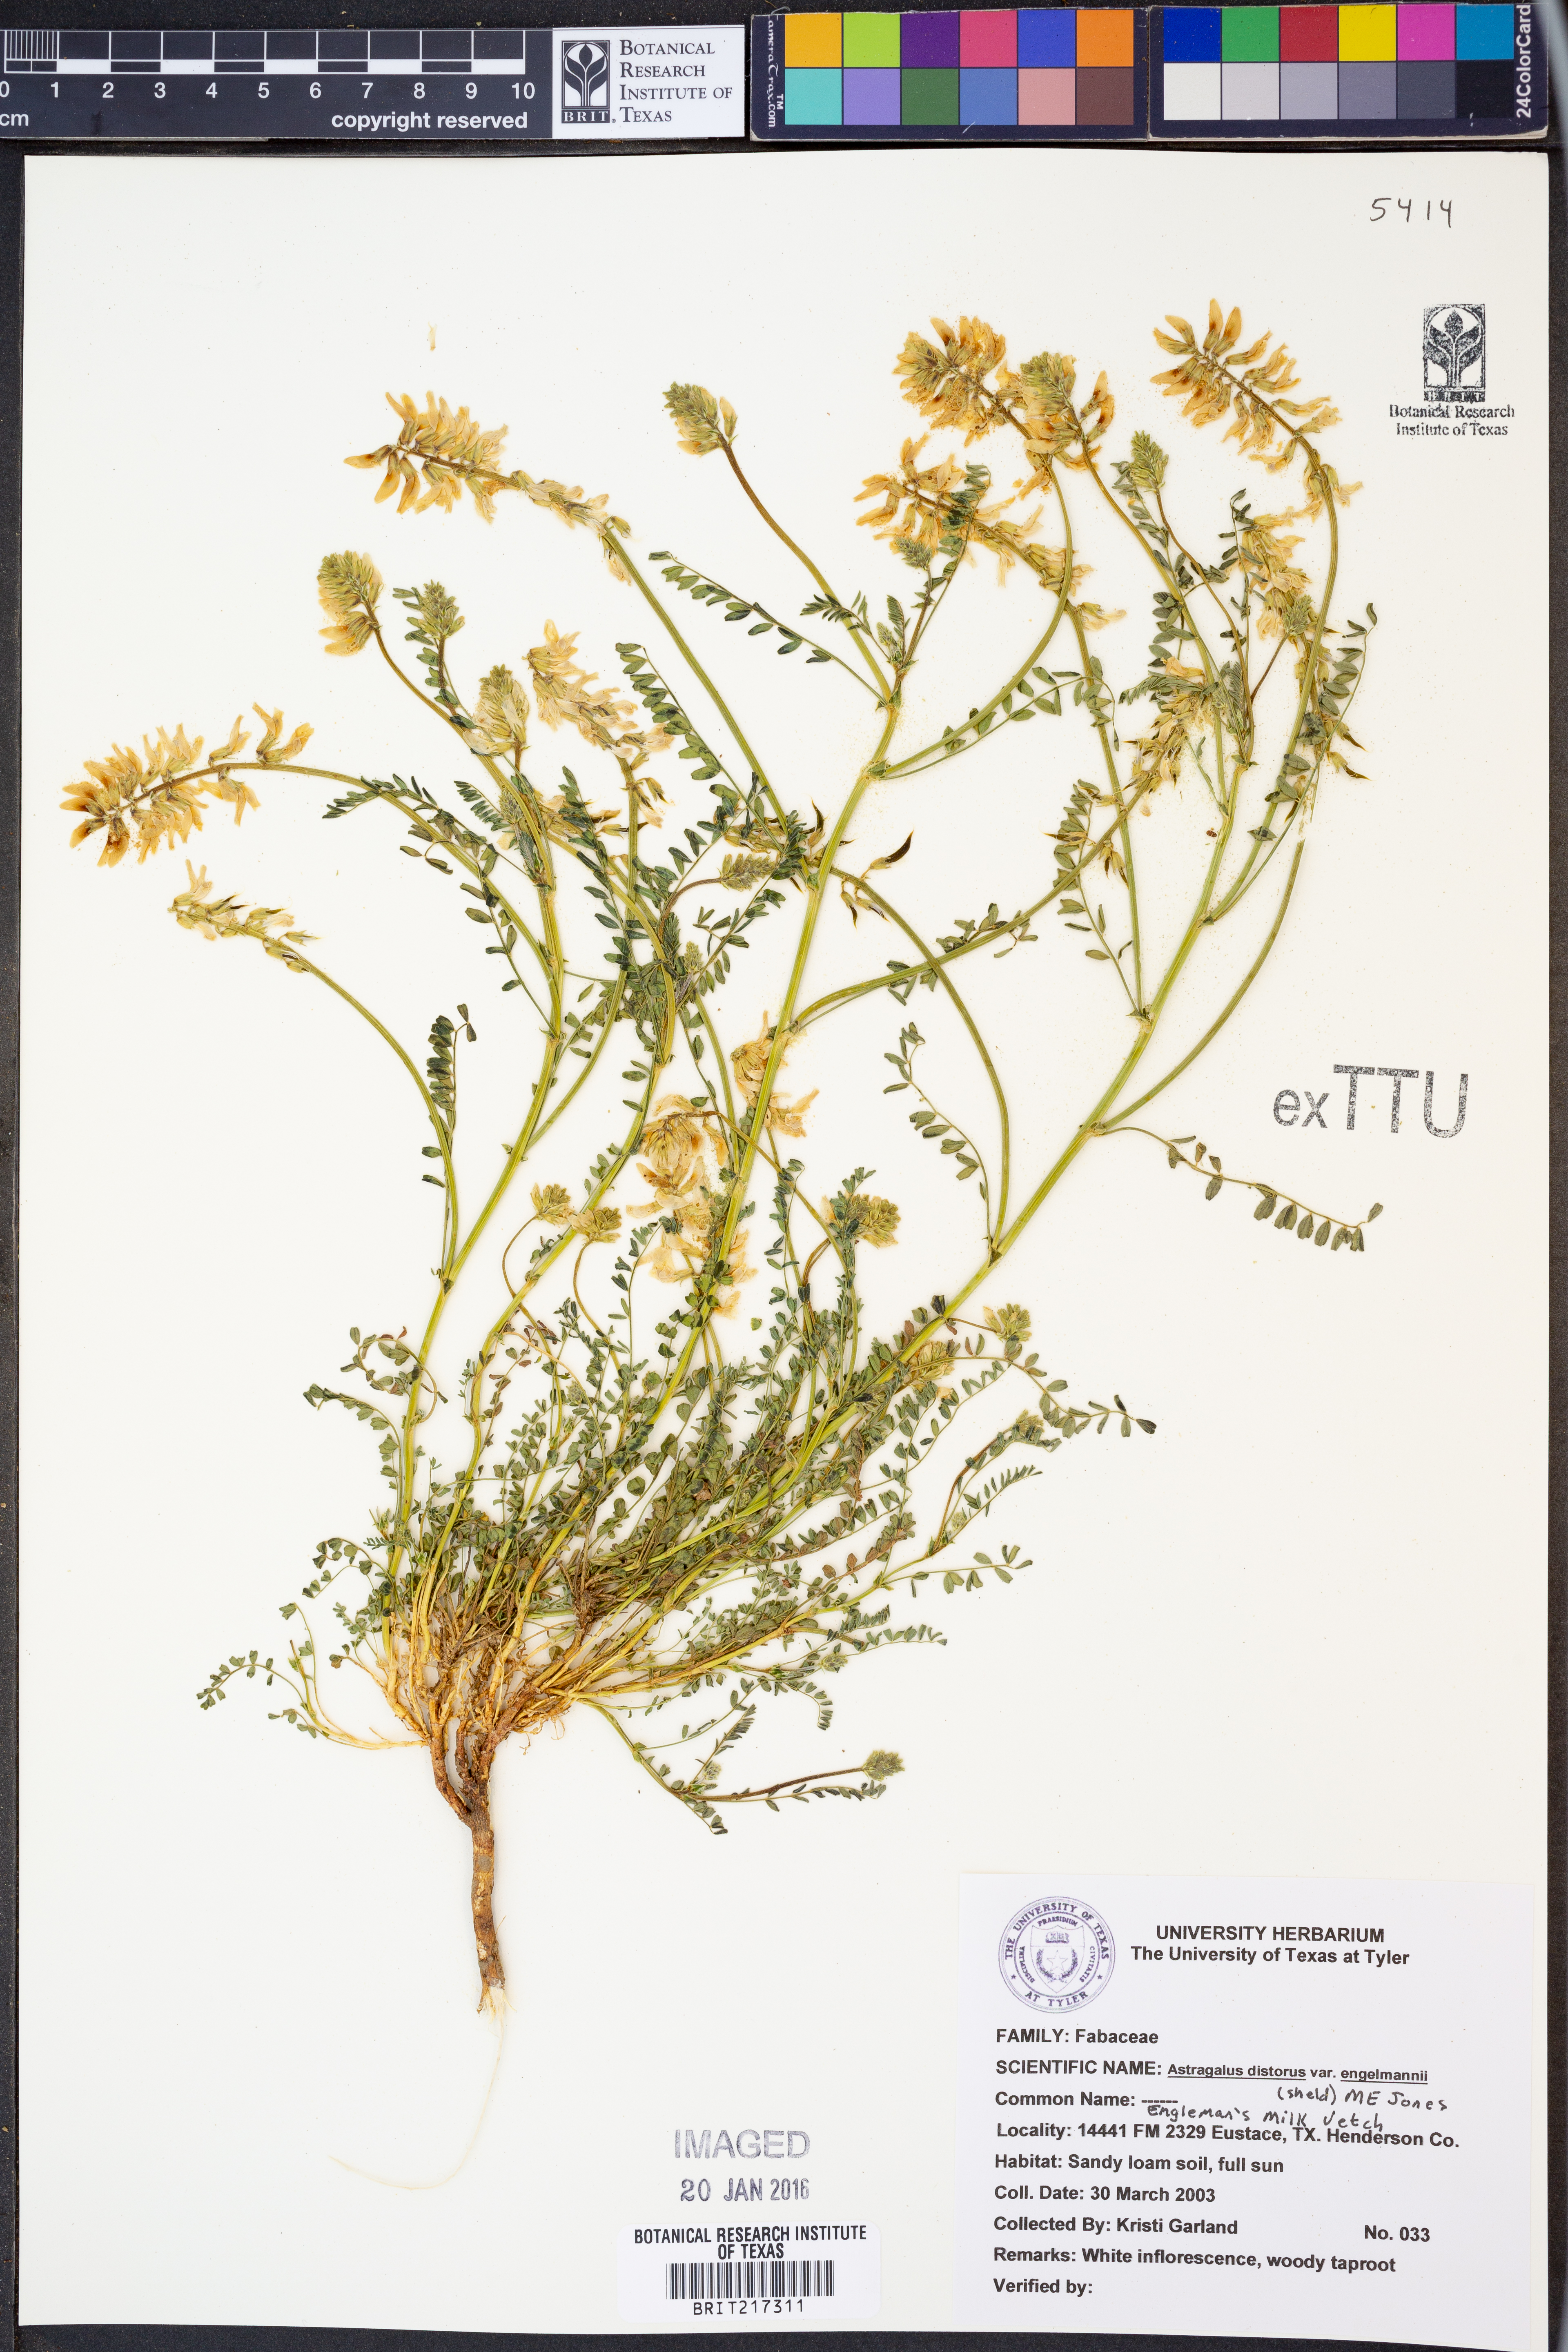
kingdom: Plantae
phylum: Tracheophyta
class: Magnoliopsida
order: Fabales
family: Fabaceae
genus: Astragalus
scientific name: Astragalus distortus
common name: Ozark milk-vetch
